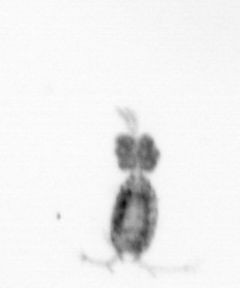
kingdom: Animalia
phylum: Arthropoda
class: Copepoda
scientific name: Copepoda
